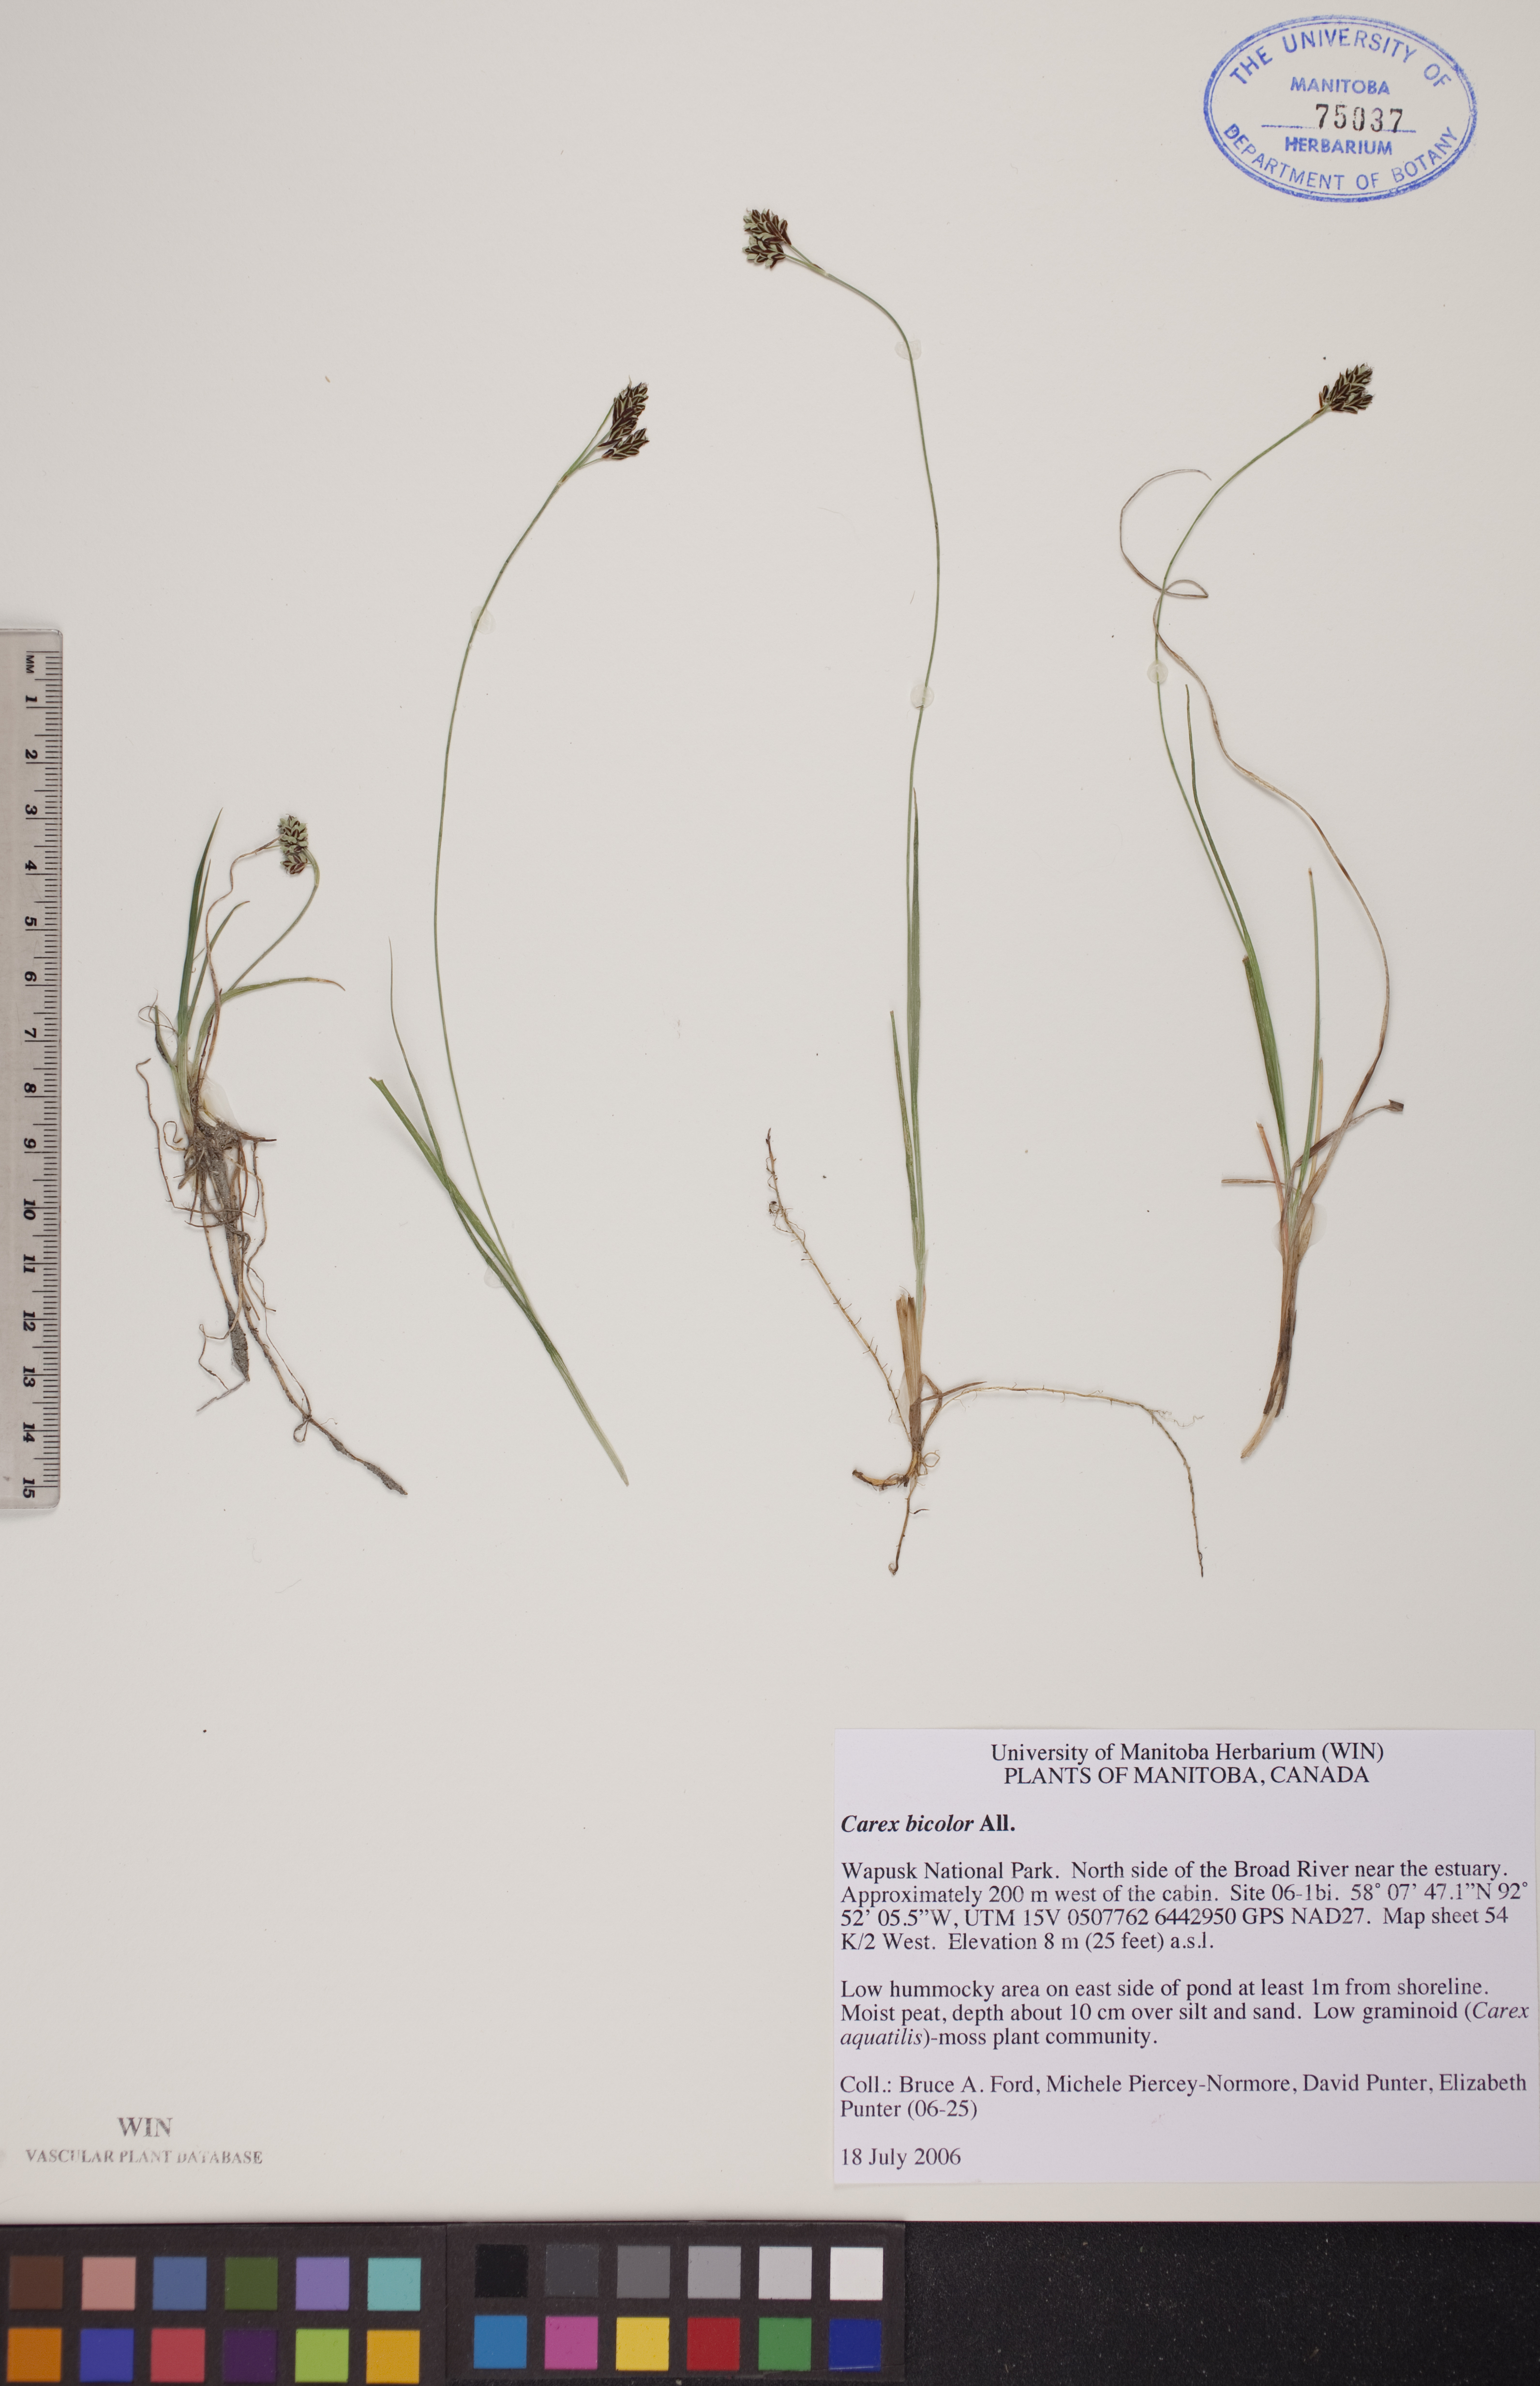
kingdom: Plantae
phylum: Tracheophyta
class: Liliopsida
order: Poales
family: Cyperaceae
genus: Carex
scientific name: Carex bicolor
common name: Bicoloured sedge
